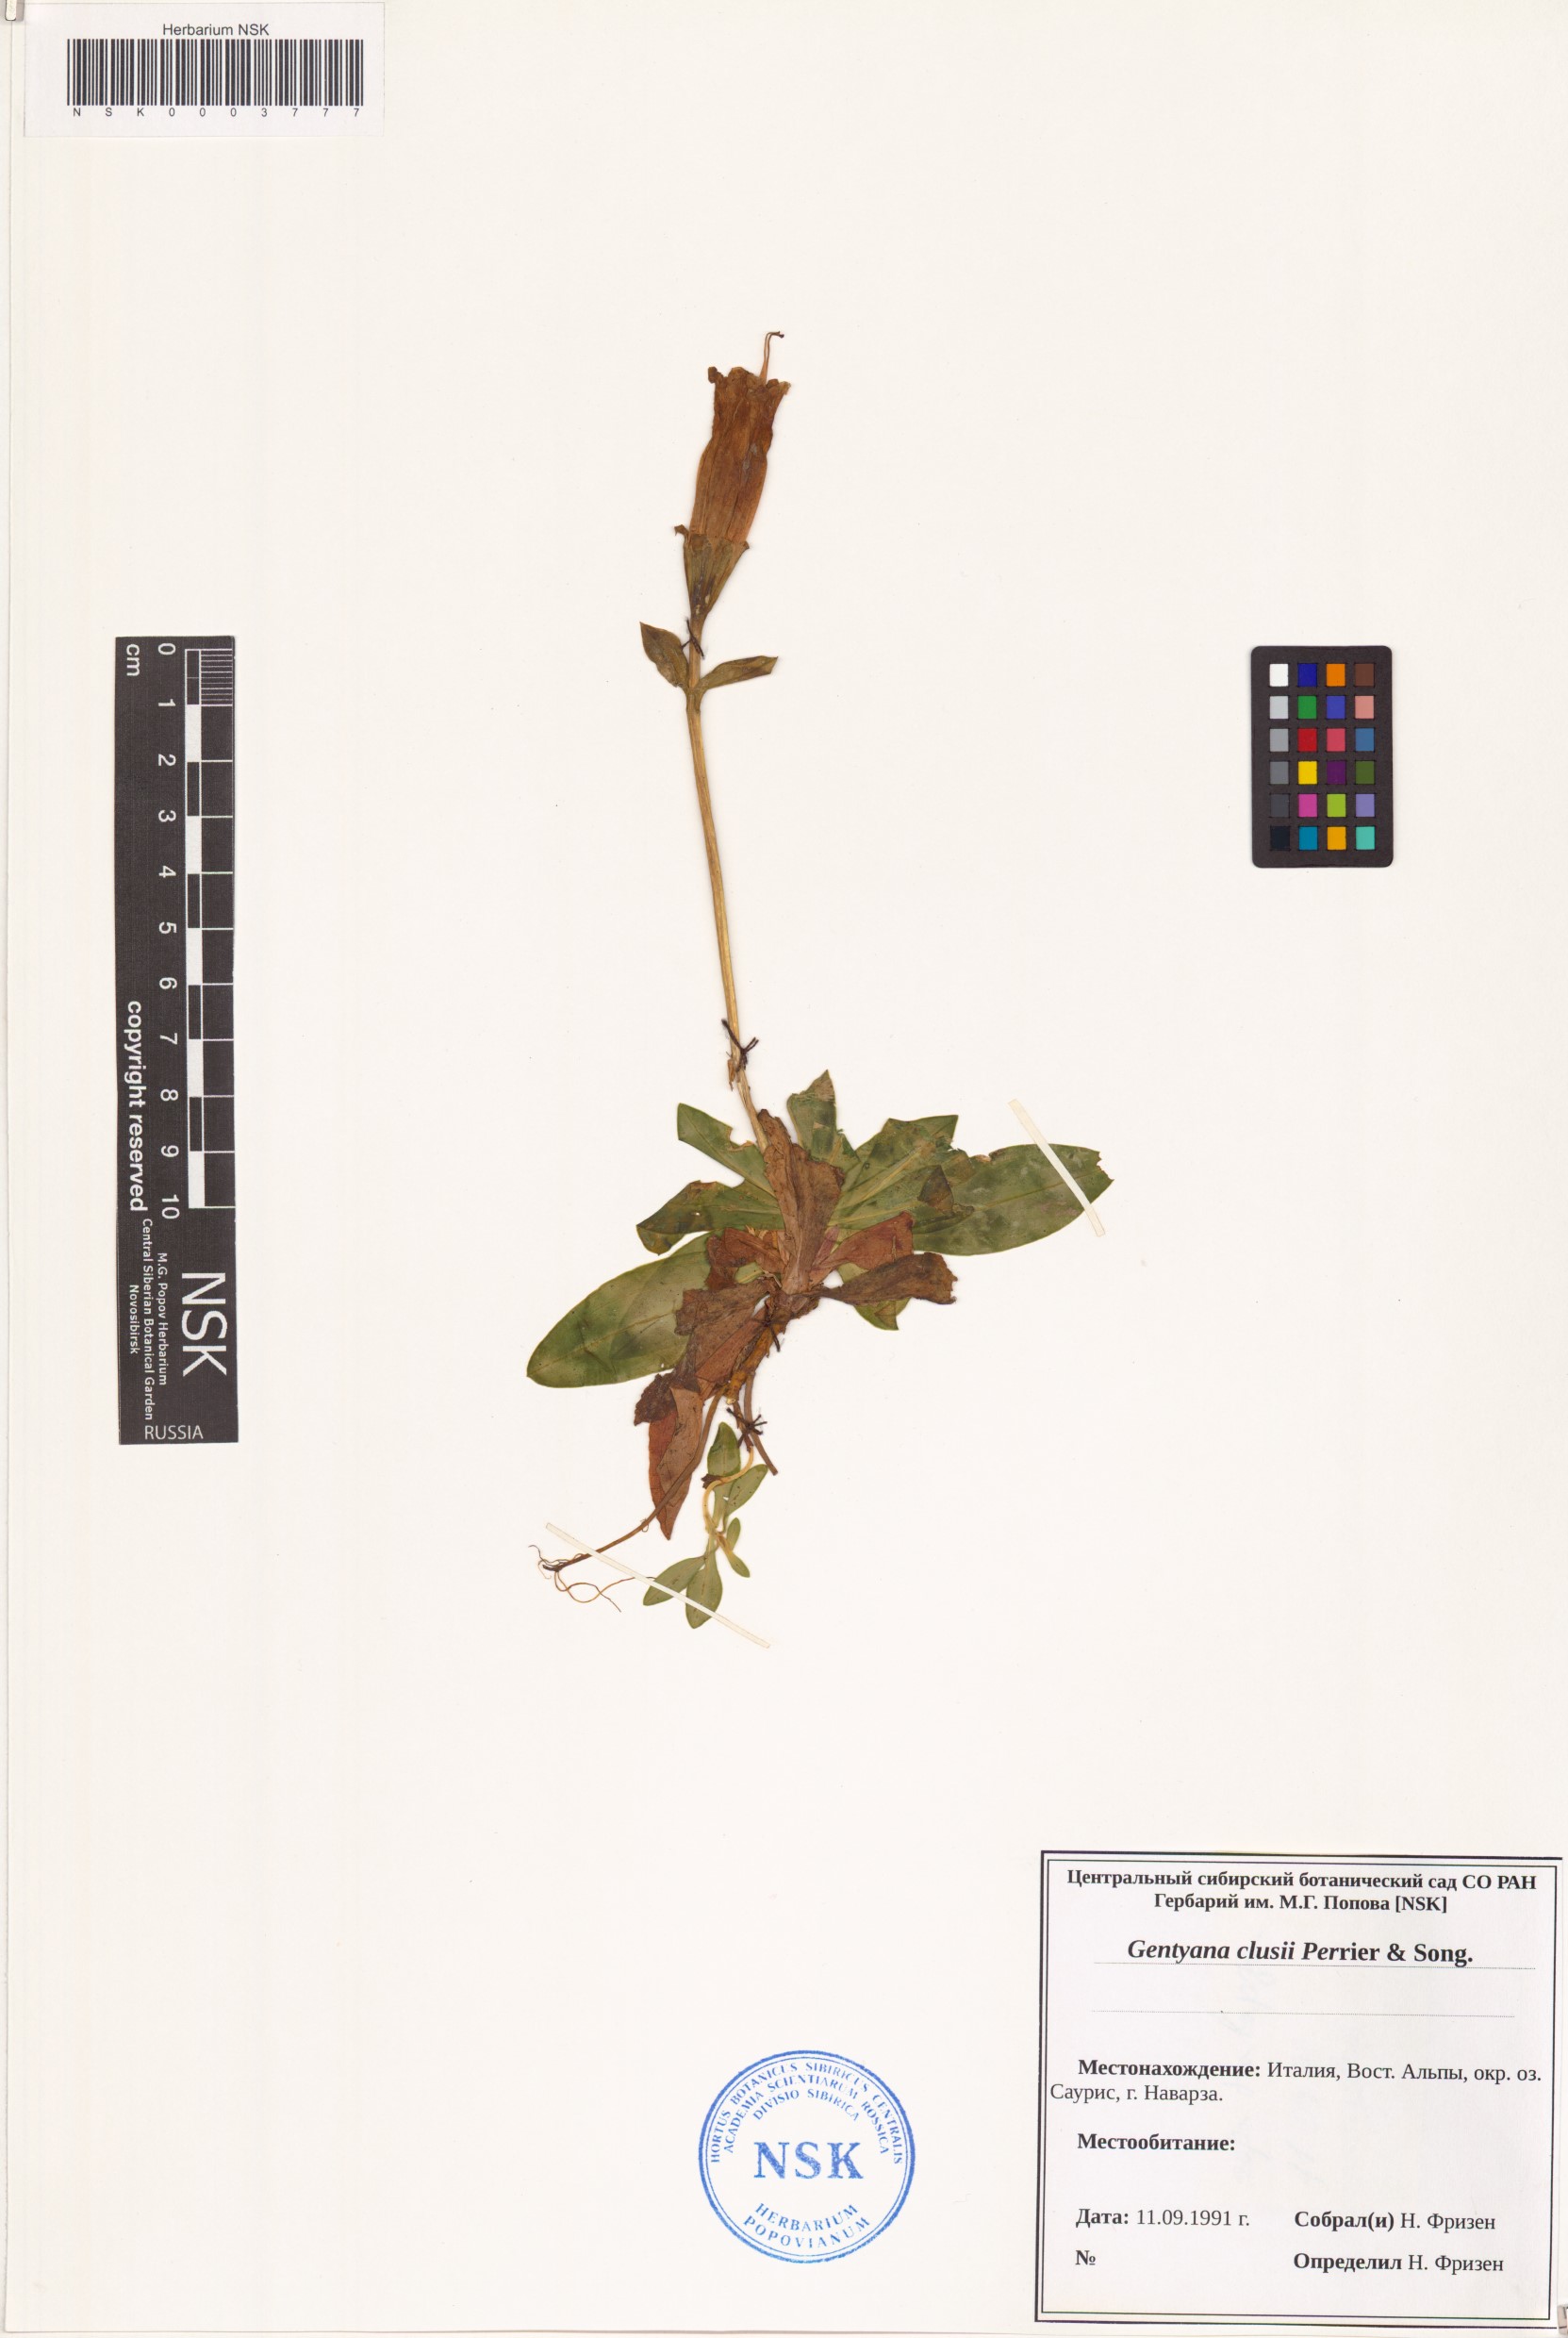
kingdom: Plantae
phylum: Tracheophyta
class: Magnoliopsida
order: Gentianales
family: Gentianaceae
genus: Gentiana
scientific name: Gentiana clusii
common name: Trumpet gentian
